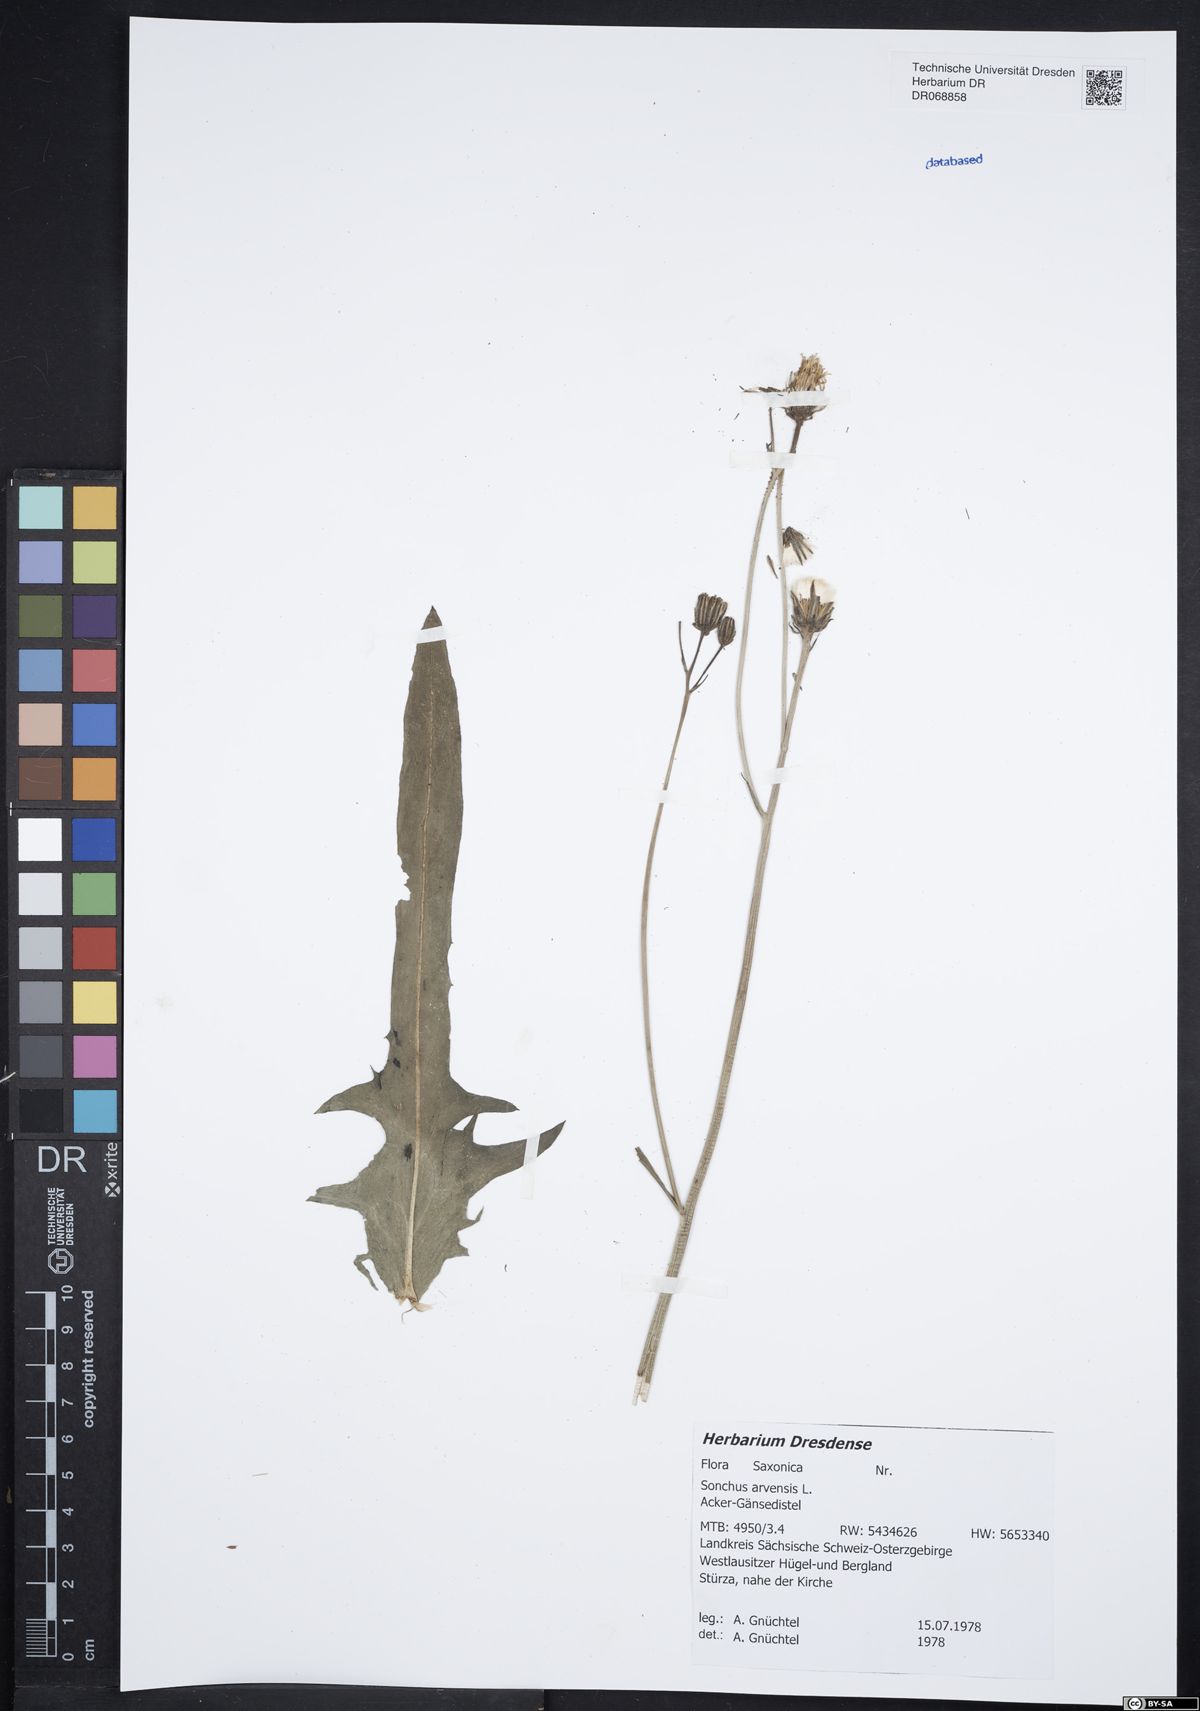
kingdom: Plantae
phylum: Tracheophyta
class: Magnoliopsida
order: Asterales
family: Asteraceae
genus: Sonchus
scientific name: Sonchus arvensis
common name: Perennial sow-thistle
